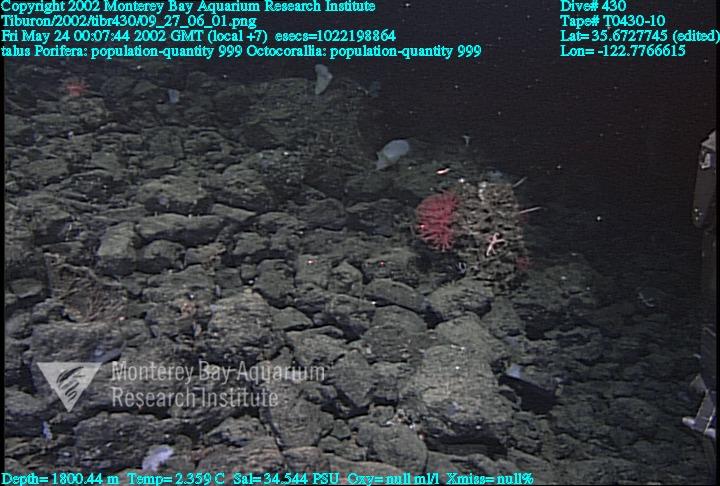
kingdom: Animalia
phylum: Porifera
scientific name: Porifera
